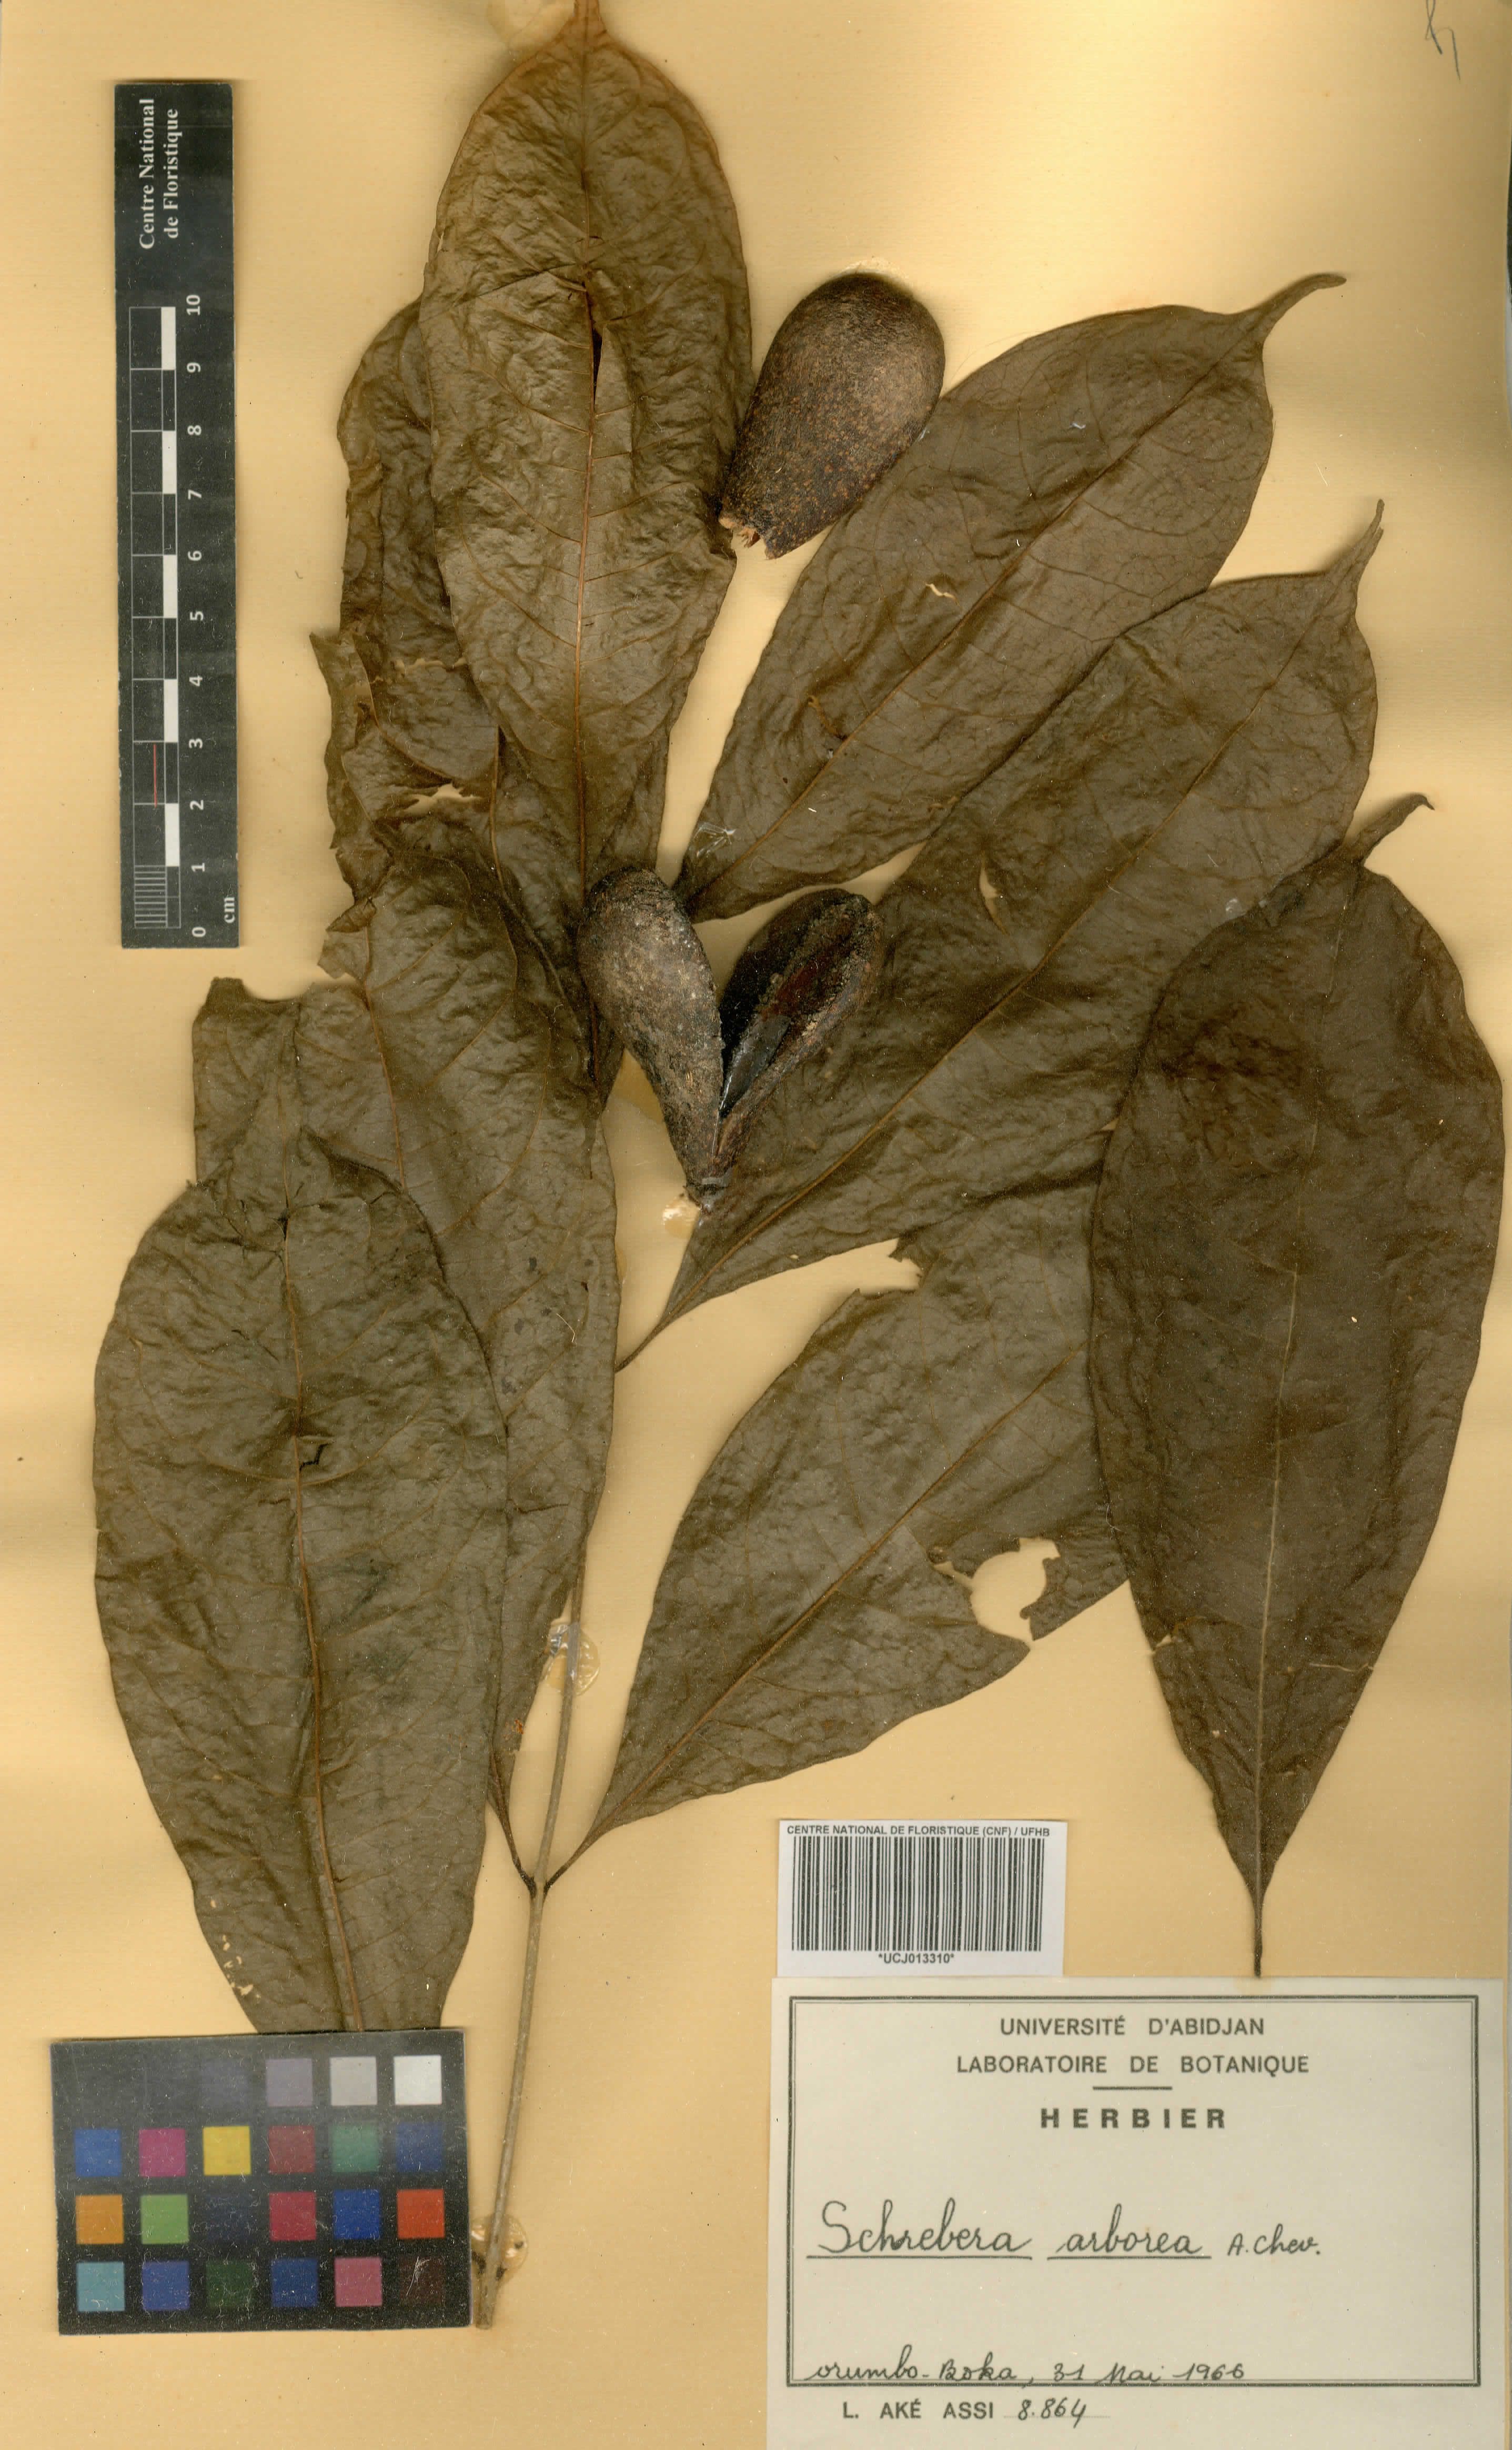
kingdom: Plantae
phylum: Tracheophyta
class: Magnoliopsida
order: Lamiales
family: Oleaceae
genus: Schrebera
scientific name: Schrebera arborea
